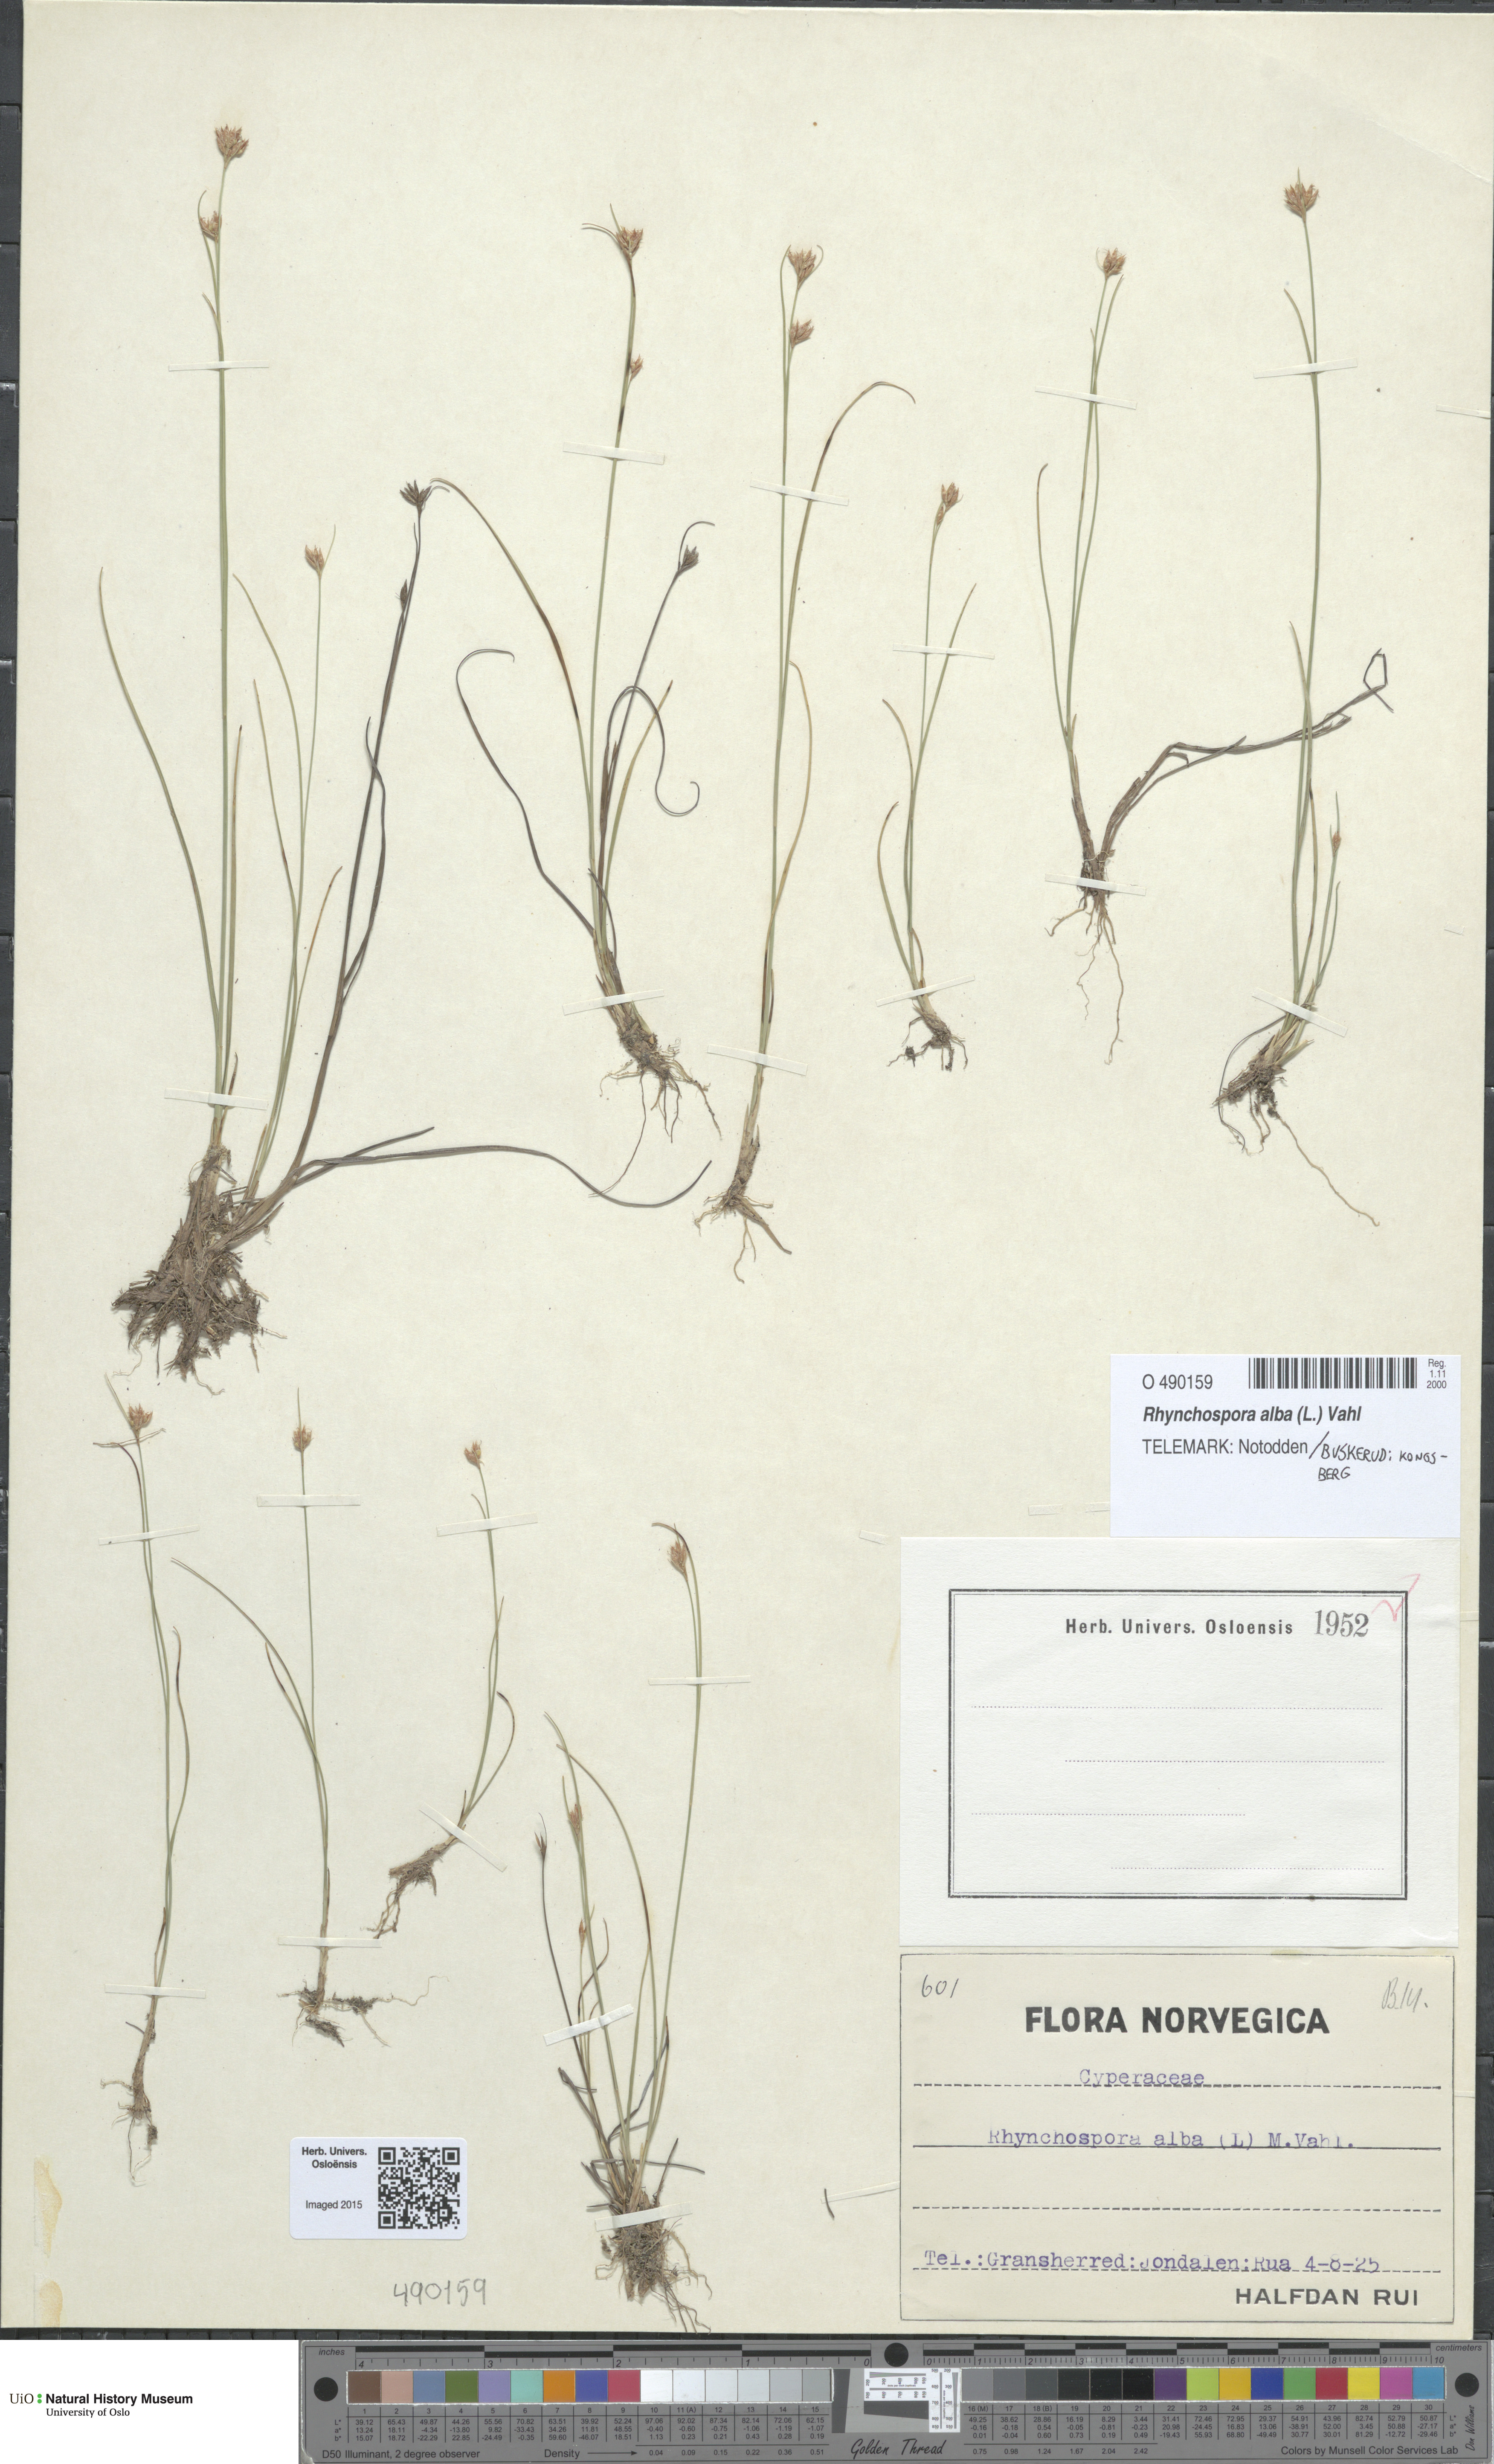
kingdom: Plantae
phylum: Tracheophyta
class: Liliopsida
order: Poales
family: Cyperaceae
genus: Rhynchospora
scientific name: Rhynchospora alba
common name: White beak-sedge
